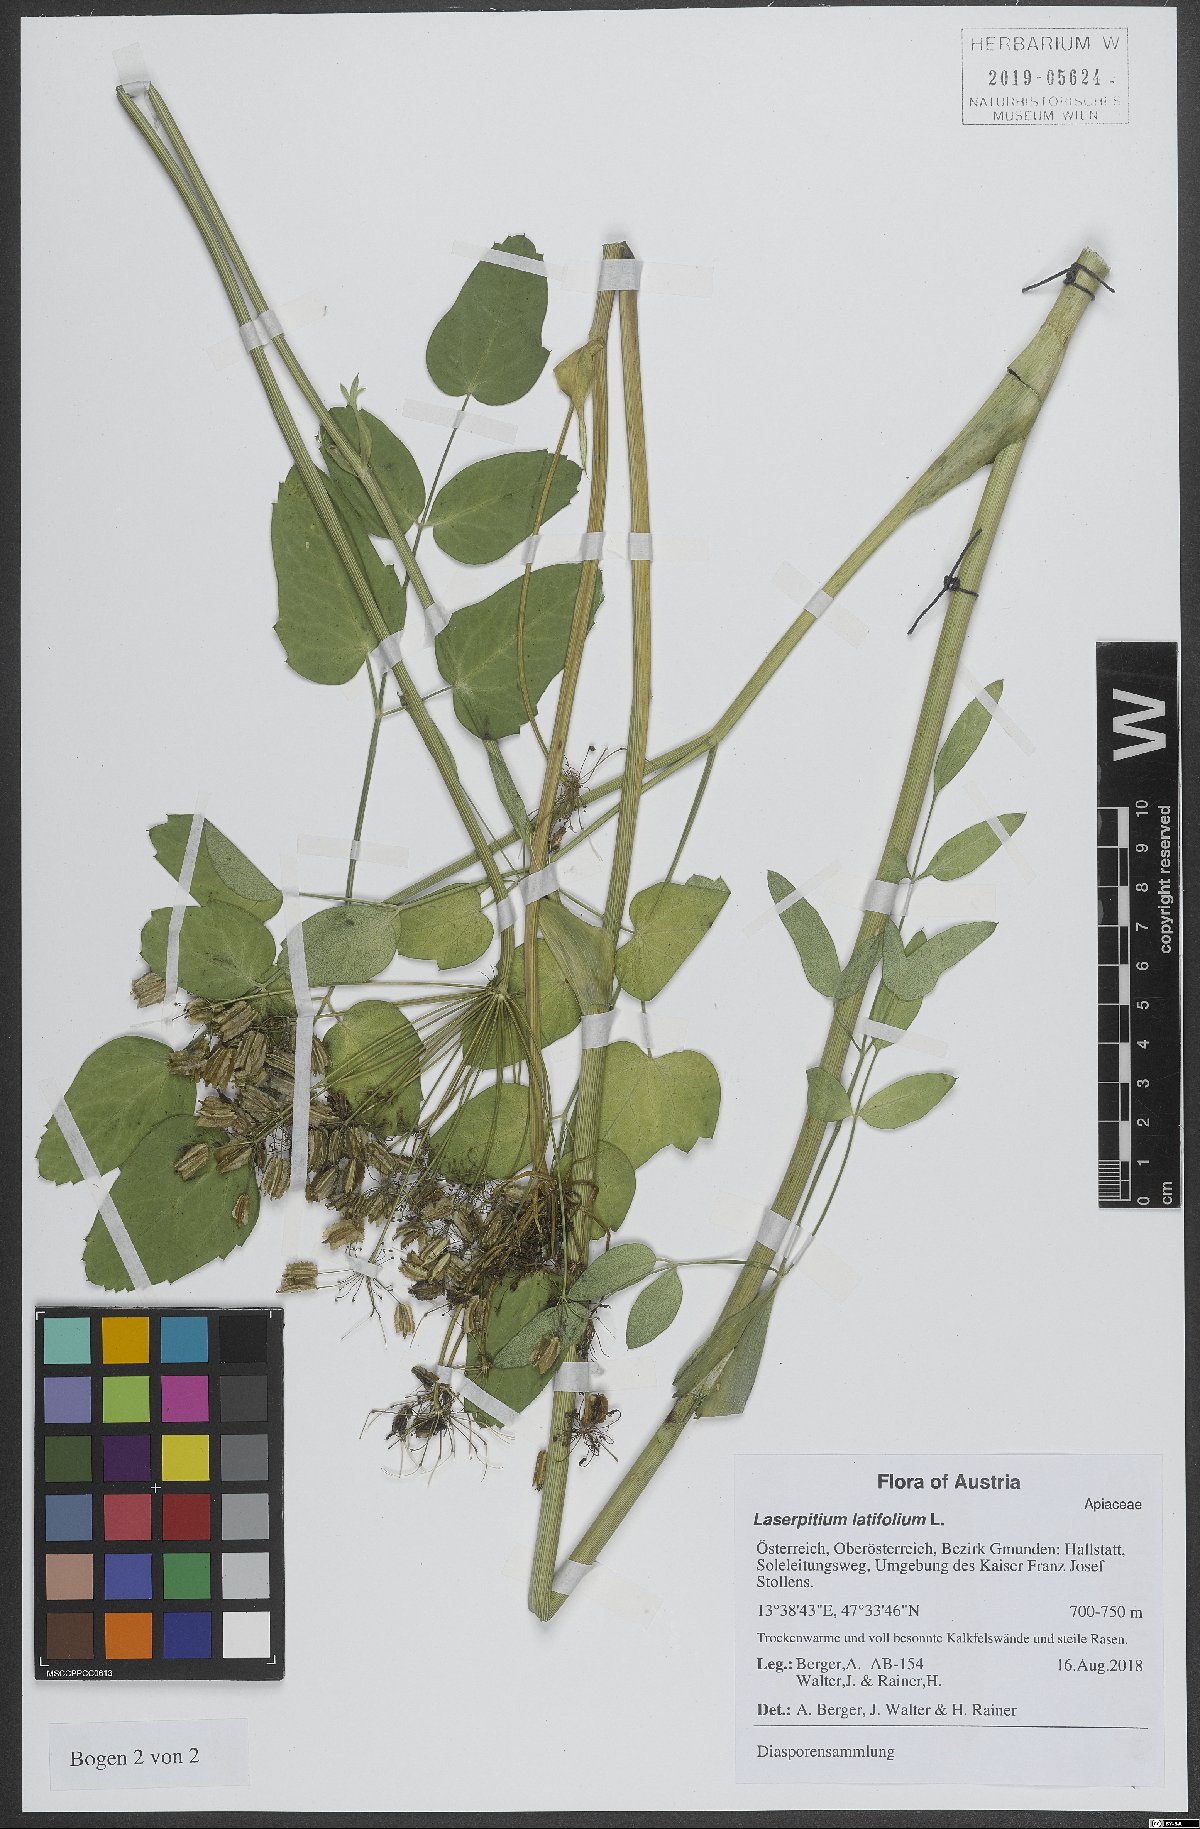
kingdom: Plantae
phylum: Tracheophyta
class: Magnoliopsida
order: Apiales
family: Apiaceae
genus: Laserpitium
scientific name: Laserpitium latifolium
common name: Broadleaf sermountain
